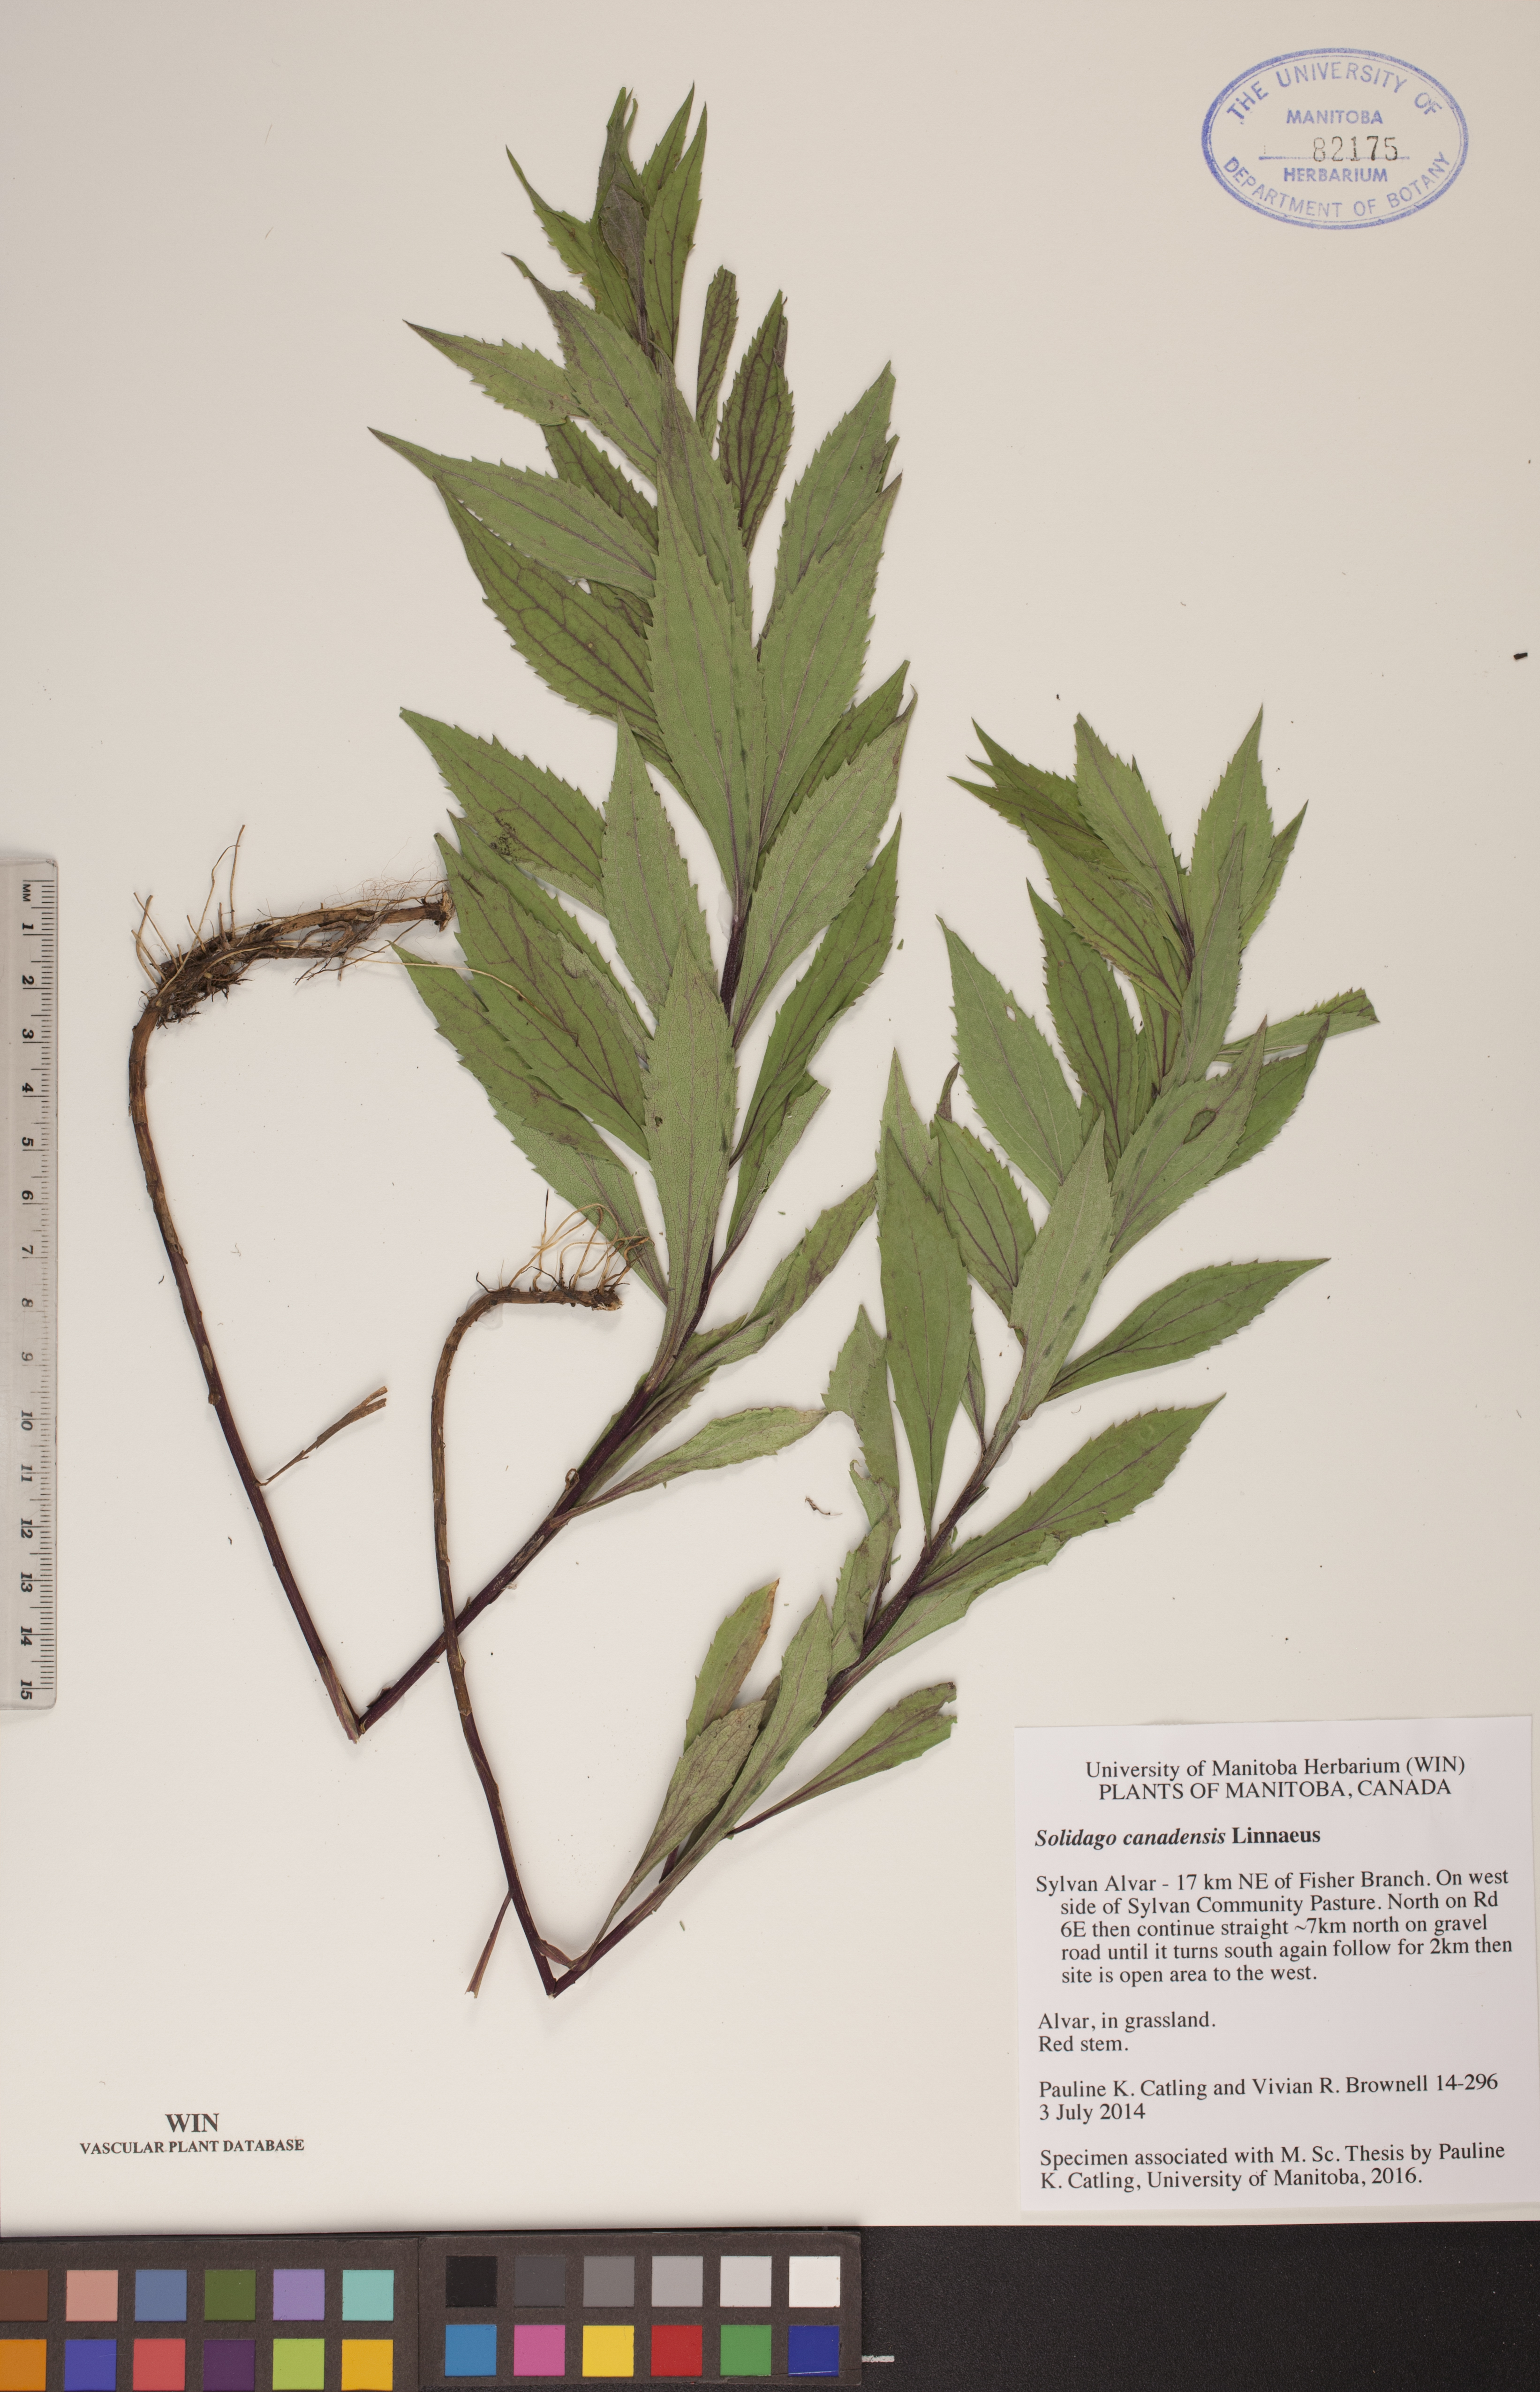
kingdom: Plantae
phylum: Tracheophyta
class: Magnoliopsida
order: Asterales
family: Asteraceae
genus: Solidago
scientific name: Solidago canadensis
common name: Canada goldenrod
